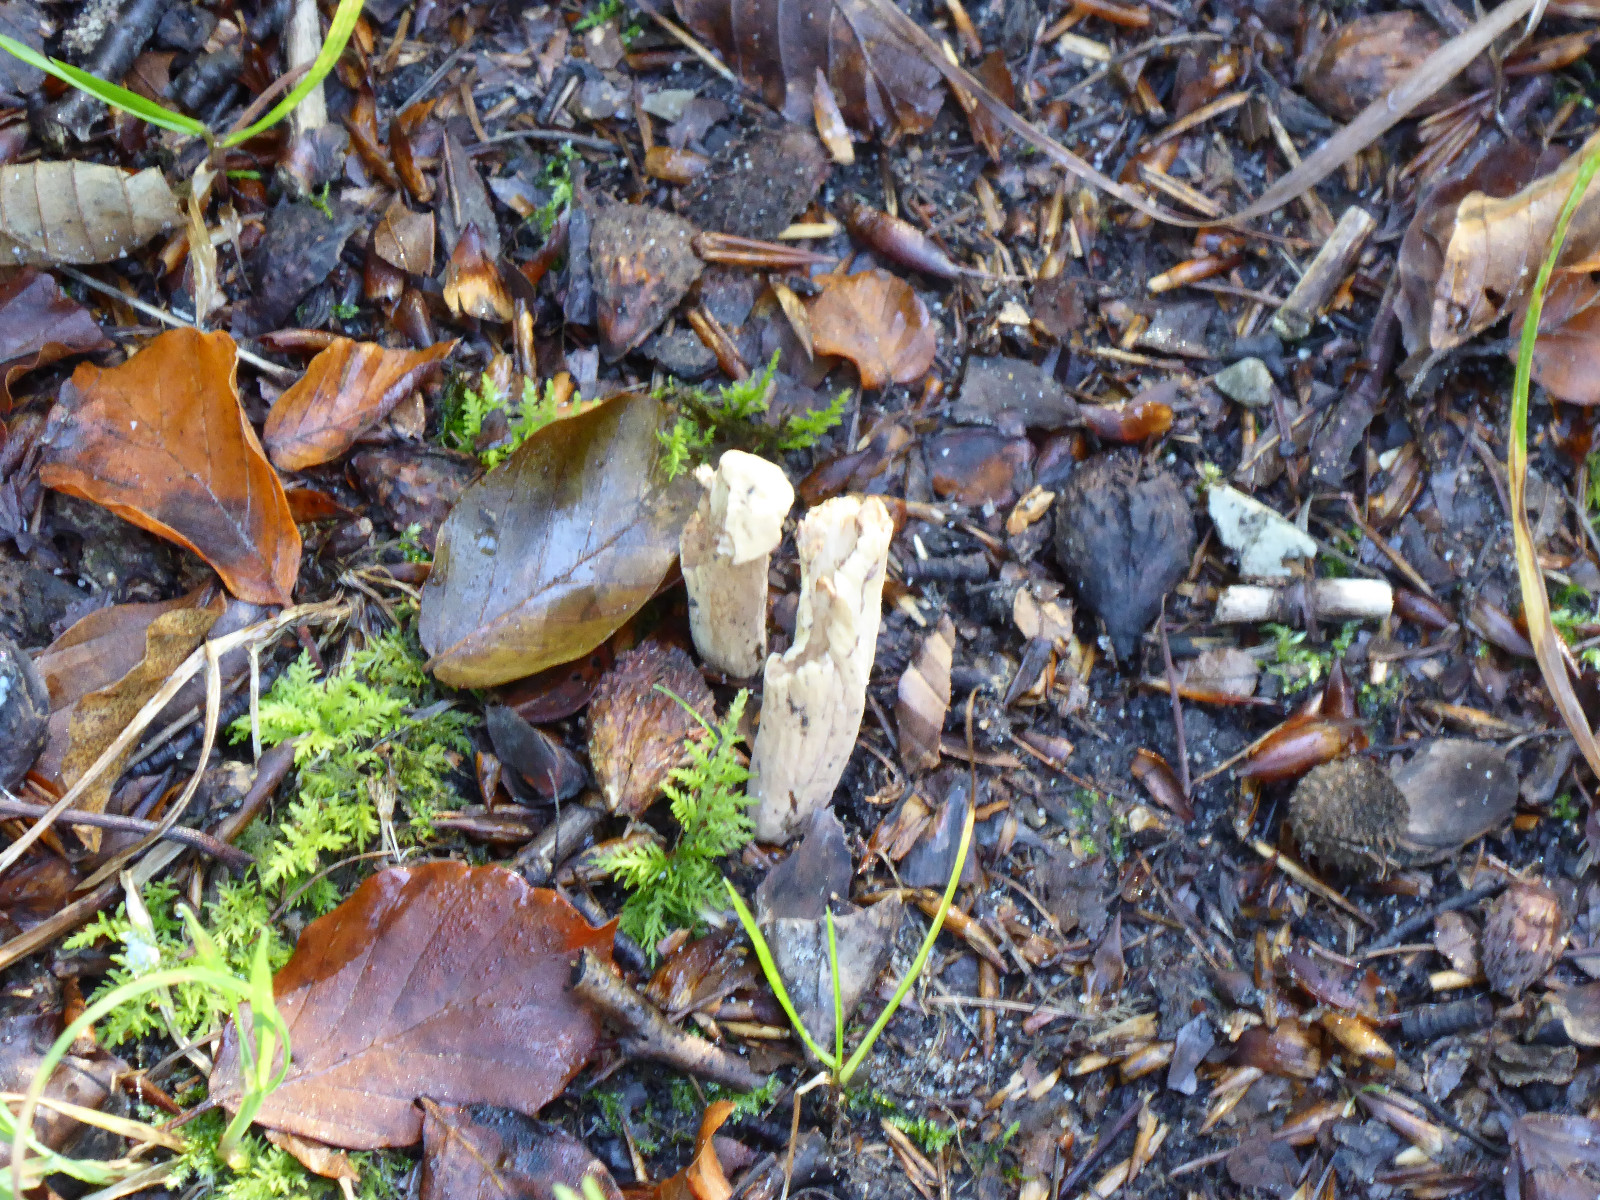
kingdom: Fungi
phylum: Basidiomycota
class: Agaricomycetes
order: Gomphales
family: Clavariadelphaceae
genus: Clavariadelphus
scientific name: Clavariadelphus pistillaris
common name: herkules-kæmpekølle
